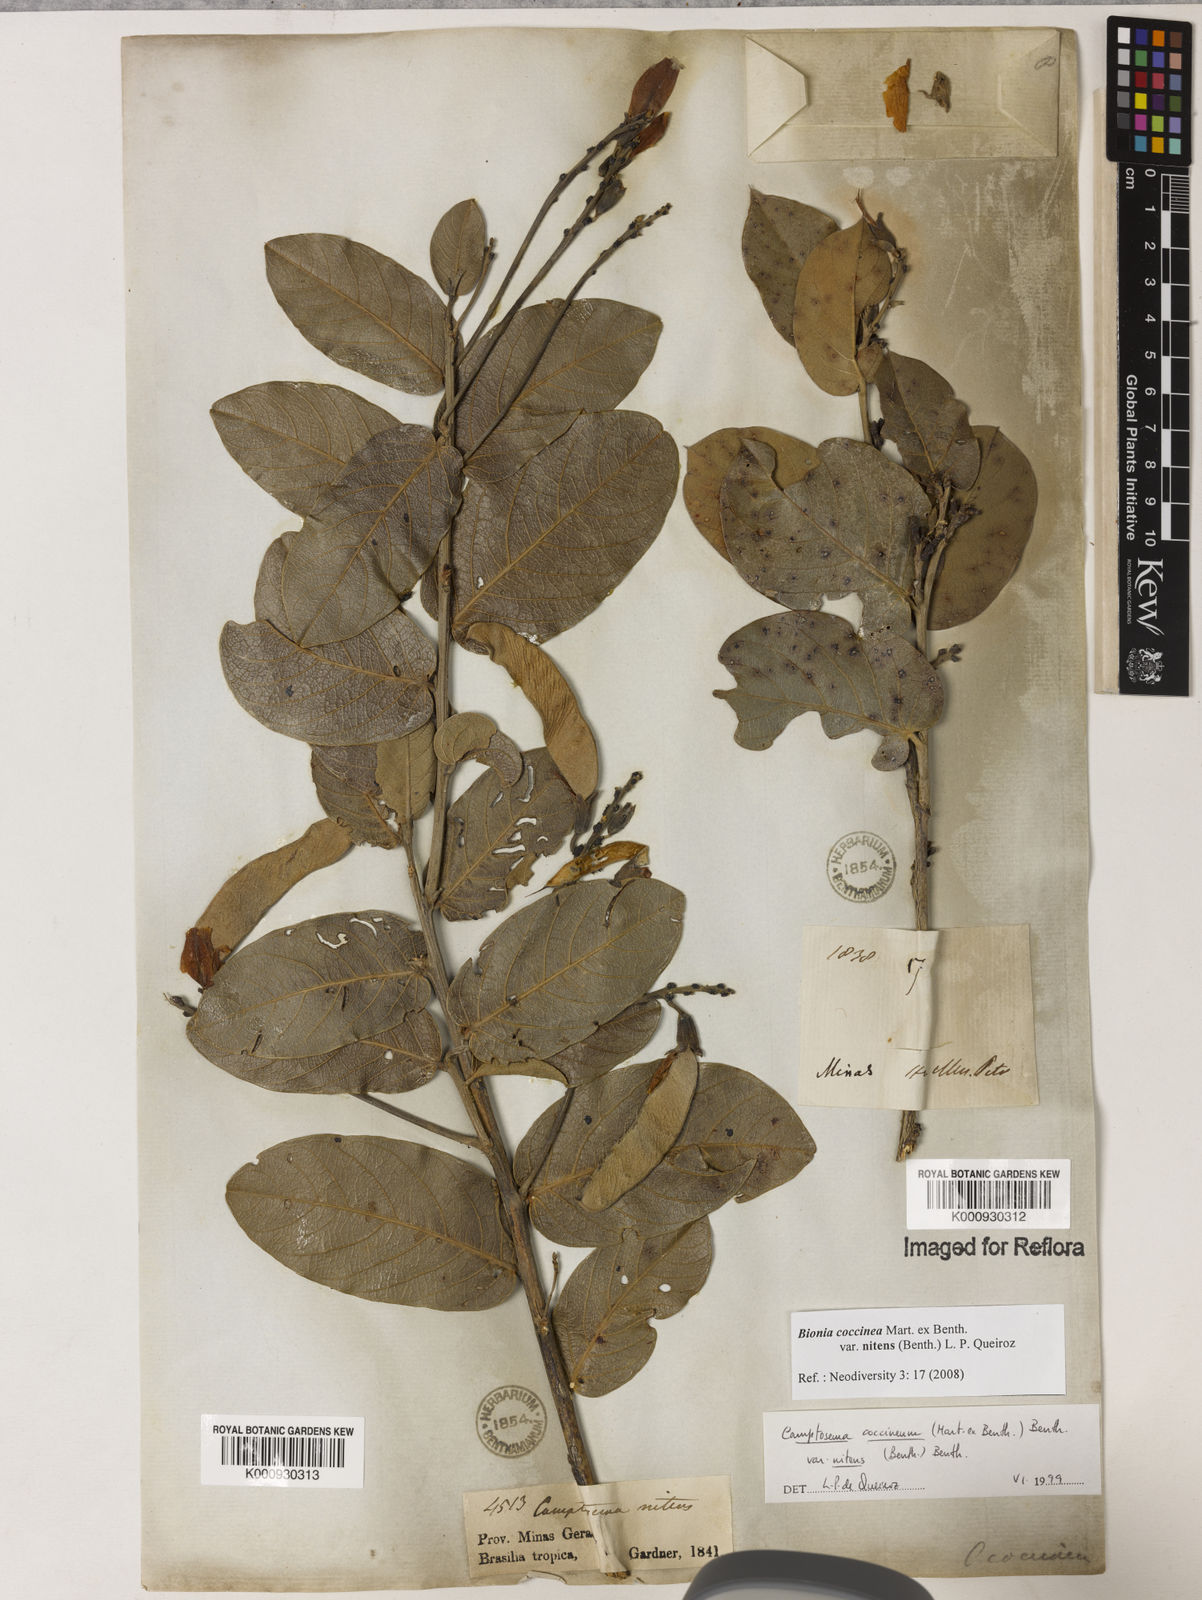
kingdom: Plantae
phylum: Tracheophyta
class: Magnoliopsida
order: Fabales
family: Fabaceae
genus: Camptosema
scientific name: Camptosema coccineum
